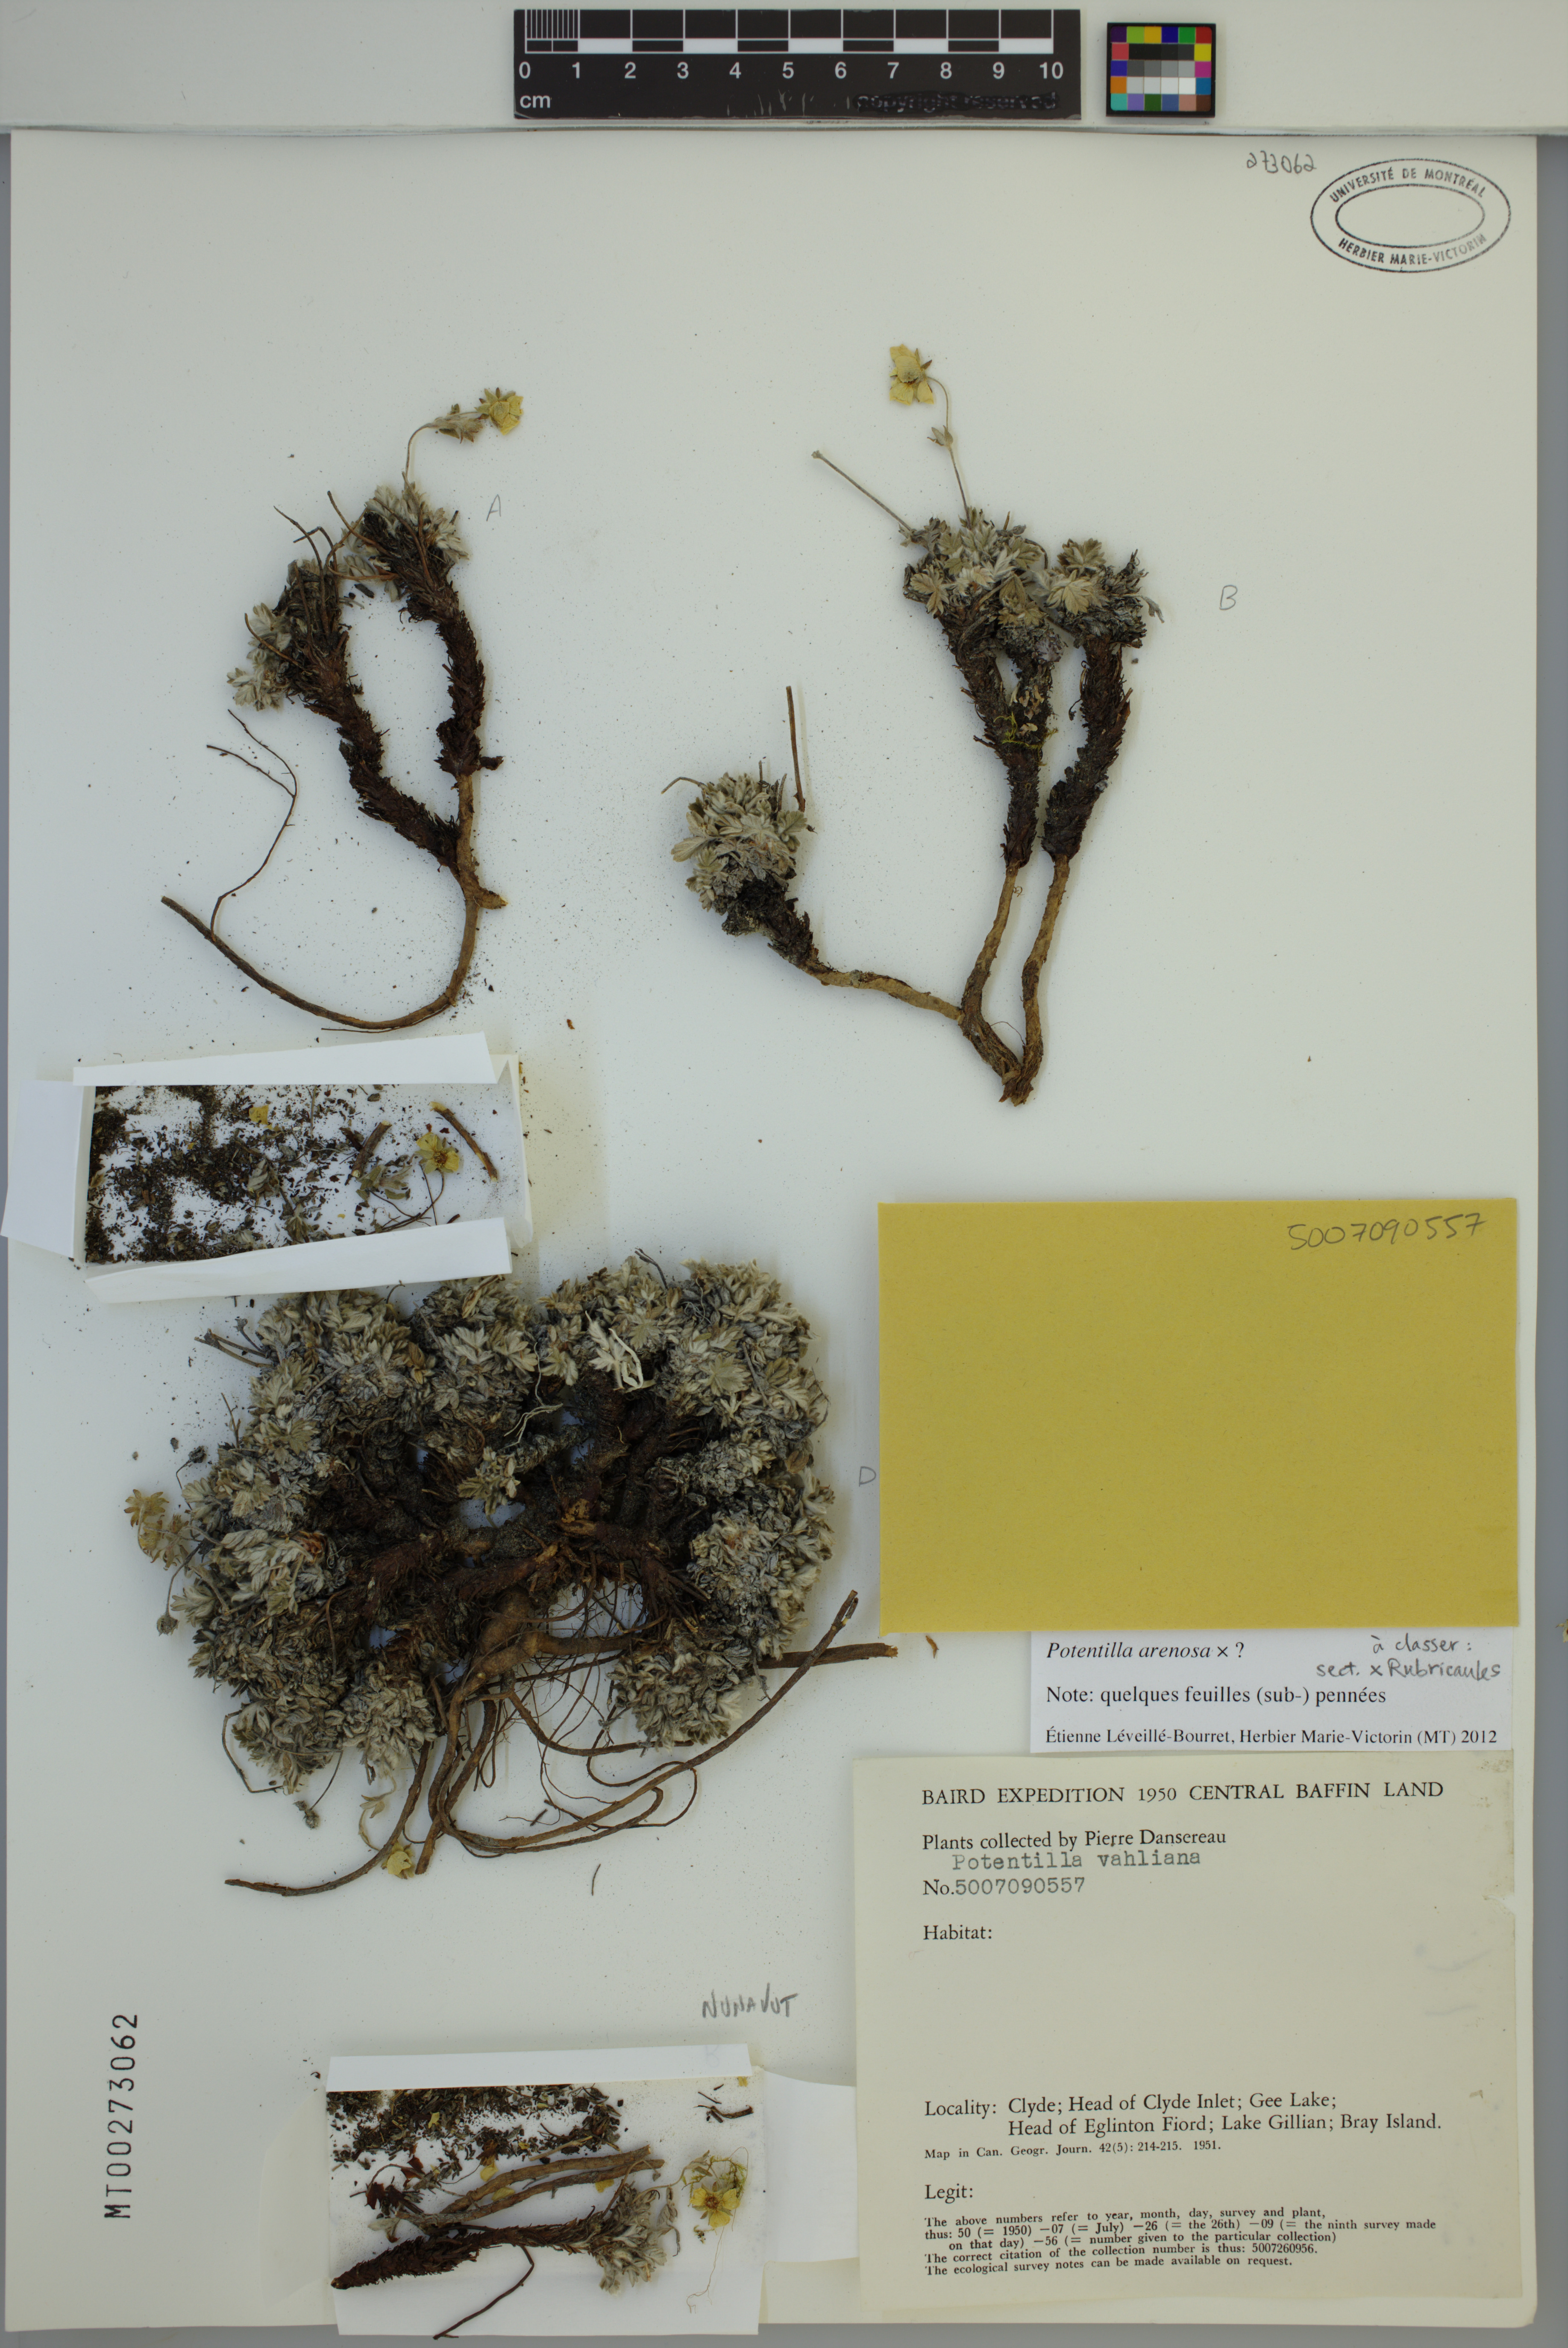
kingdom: Plantae
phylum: Tracheophyta
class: Magnoliopsida
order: Rosales
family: Rosaceae
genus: Potentilla
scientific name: Potentilla arenosa
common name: Bluff cinquefoil
